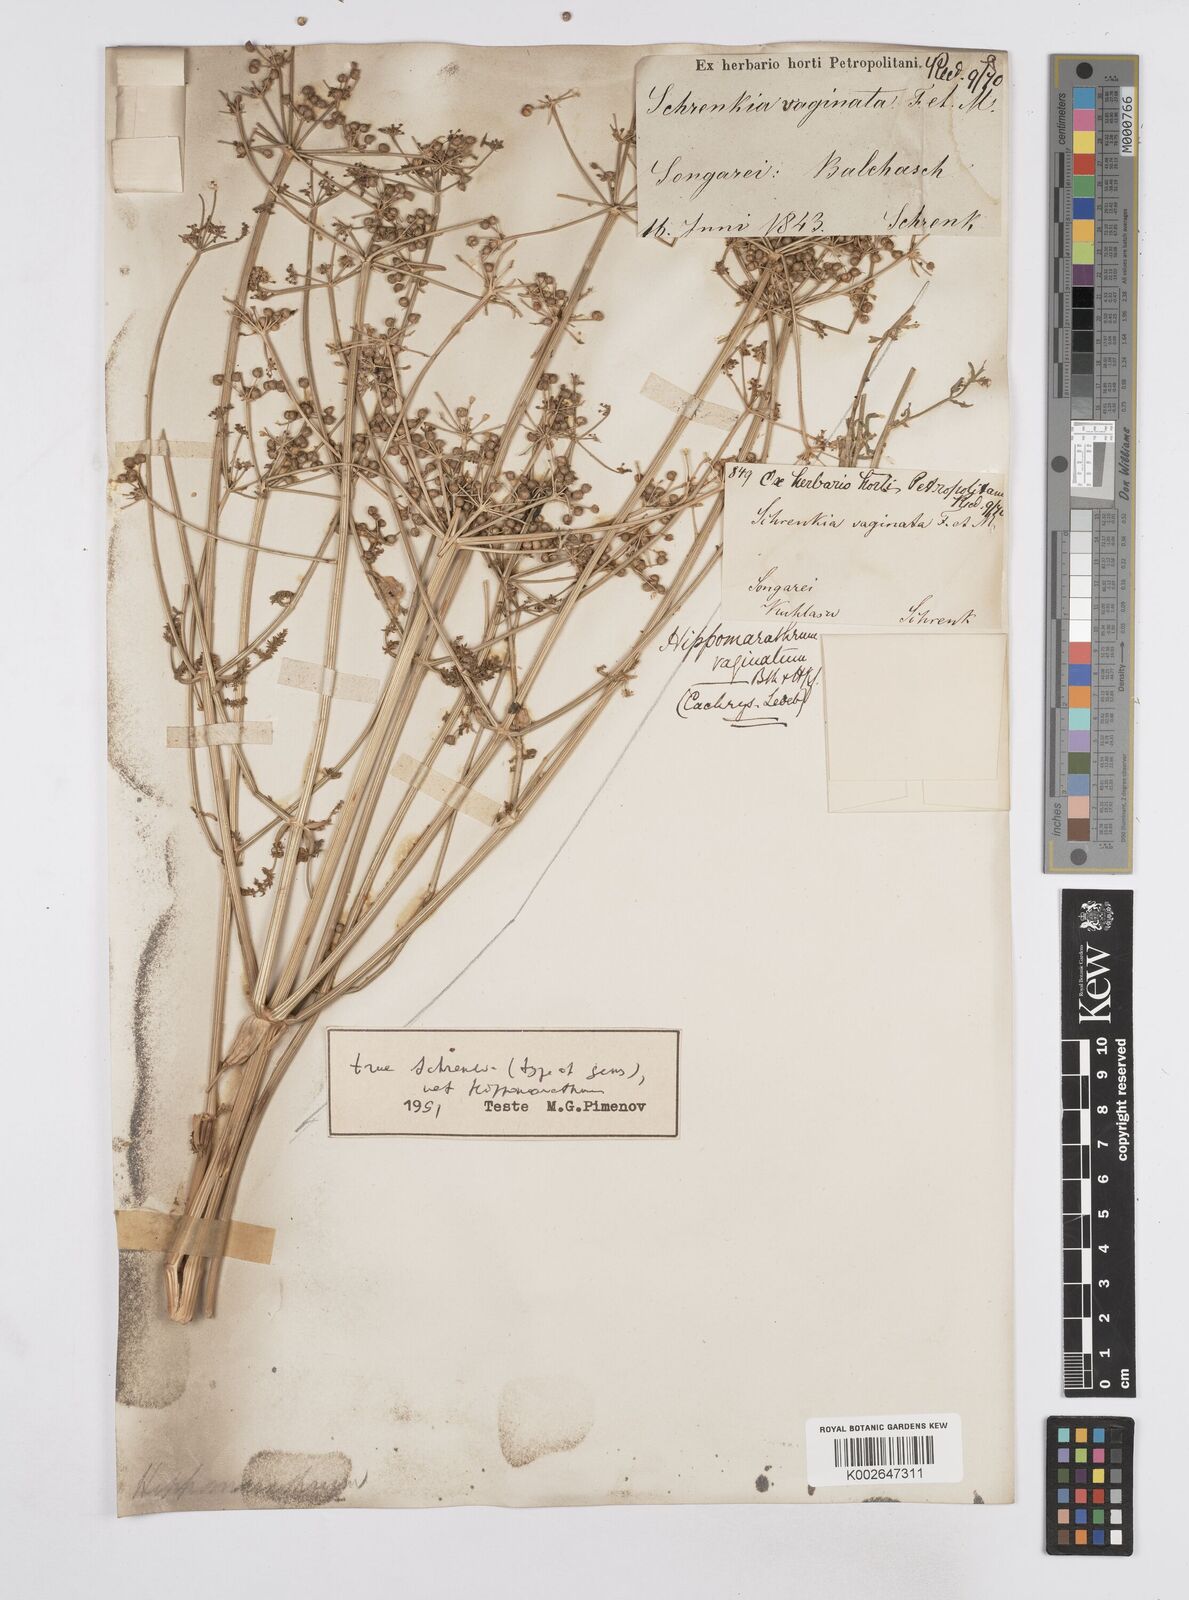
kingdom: Plantae
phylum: Tracheophyta
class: Magnoliopsida
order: Apiales
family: Apiaceae
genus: Schrenkia
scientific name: Schrenkia vaginata
